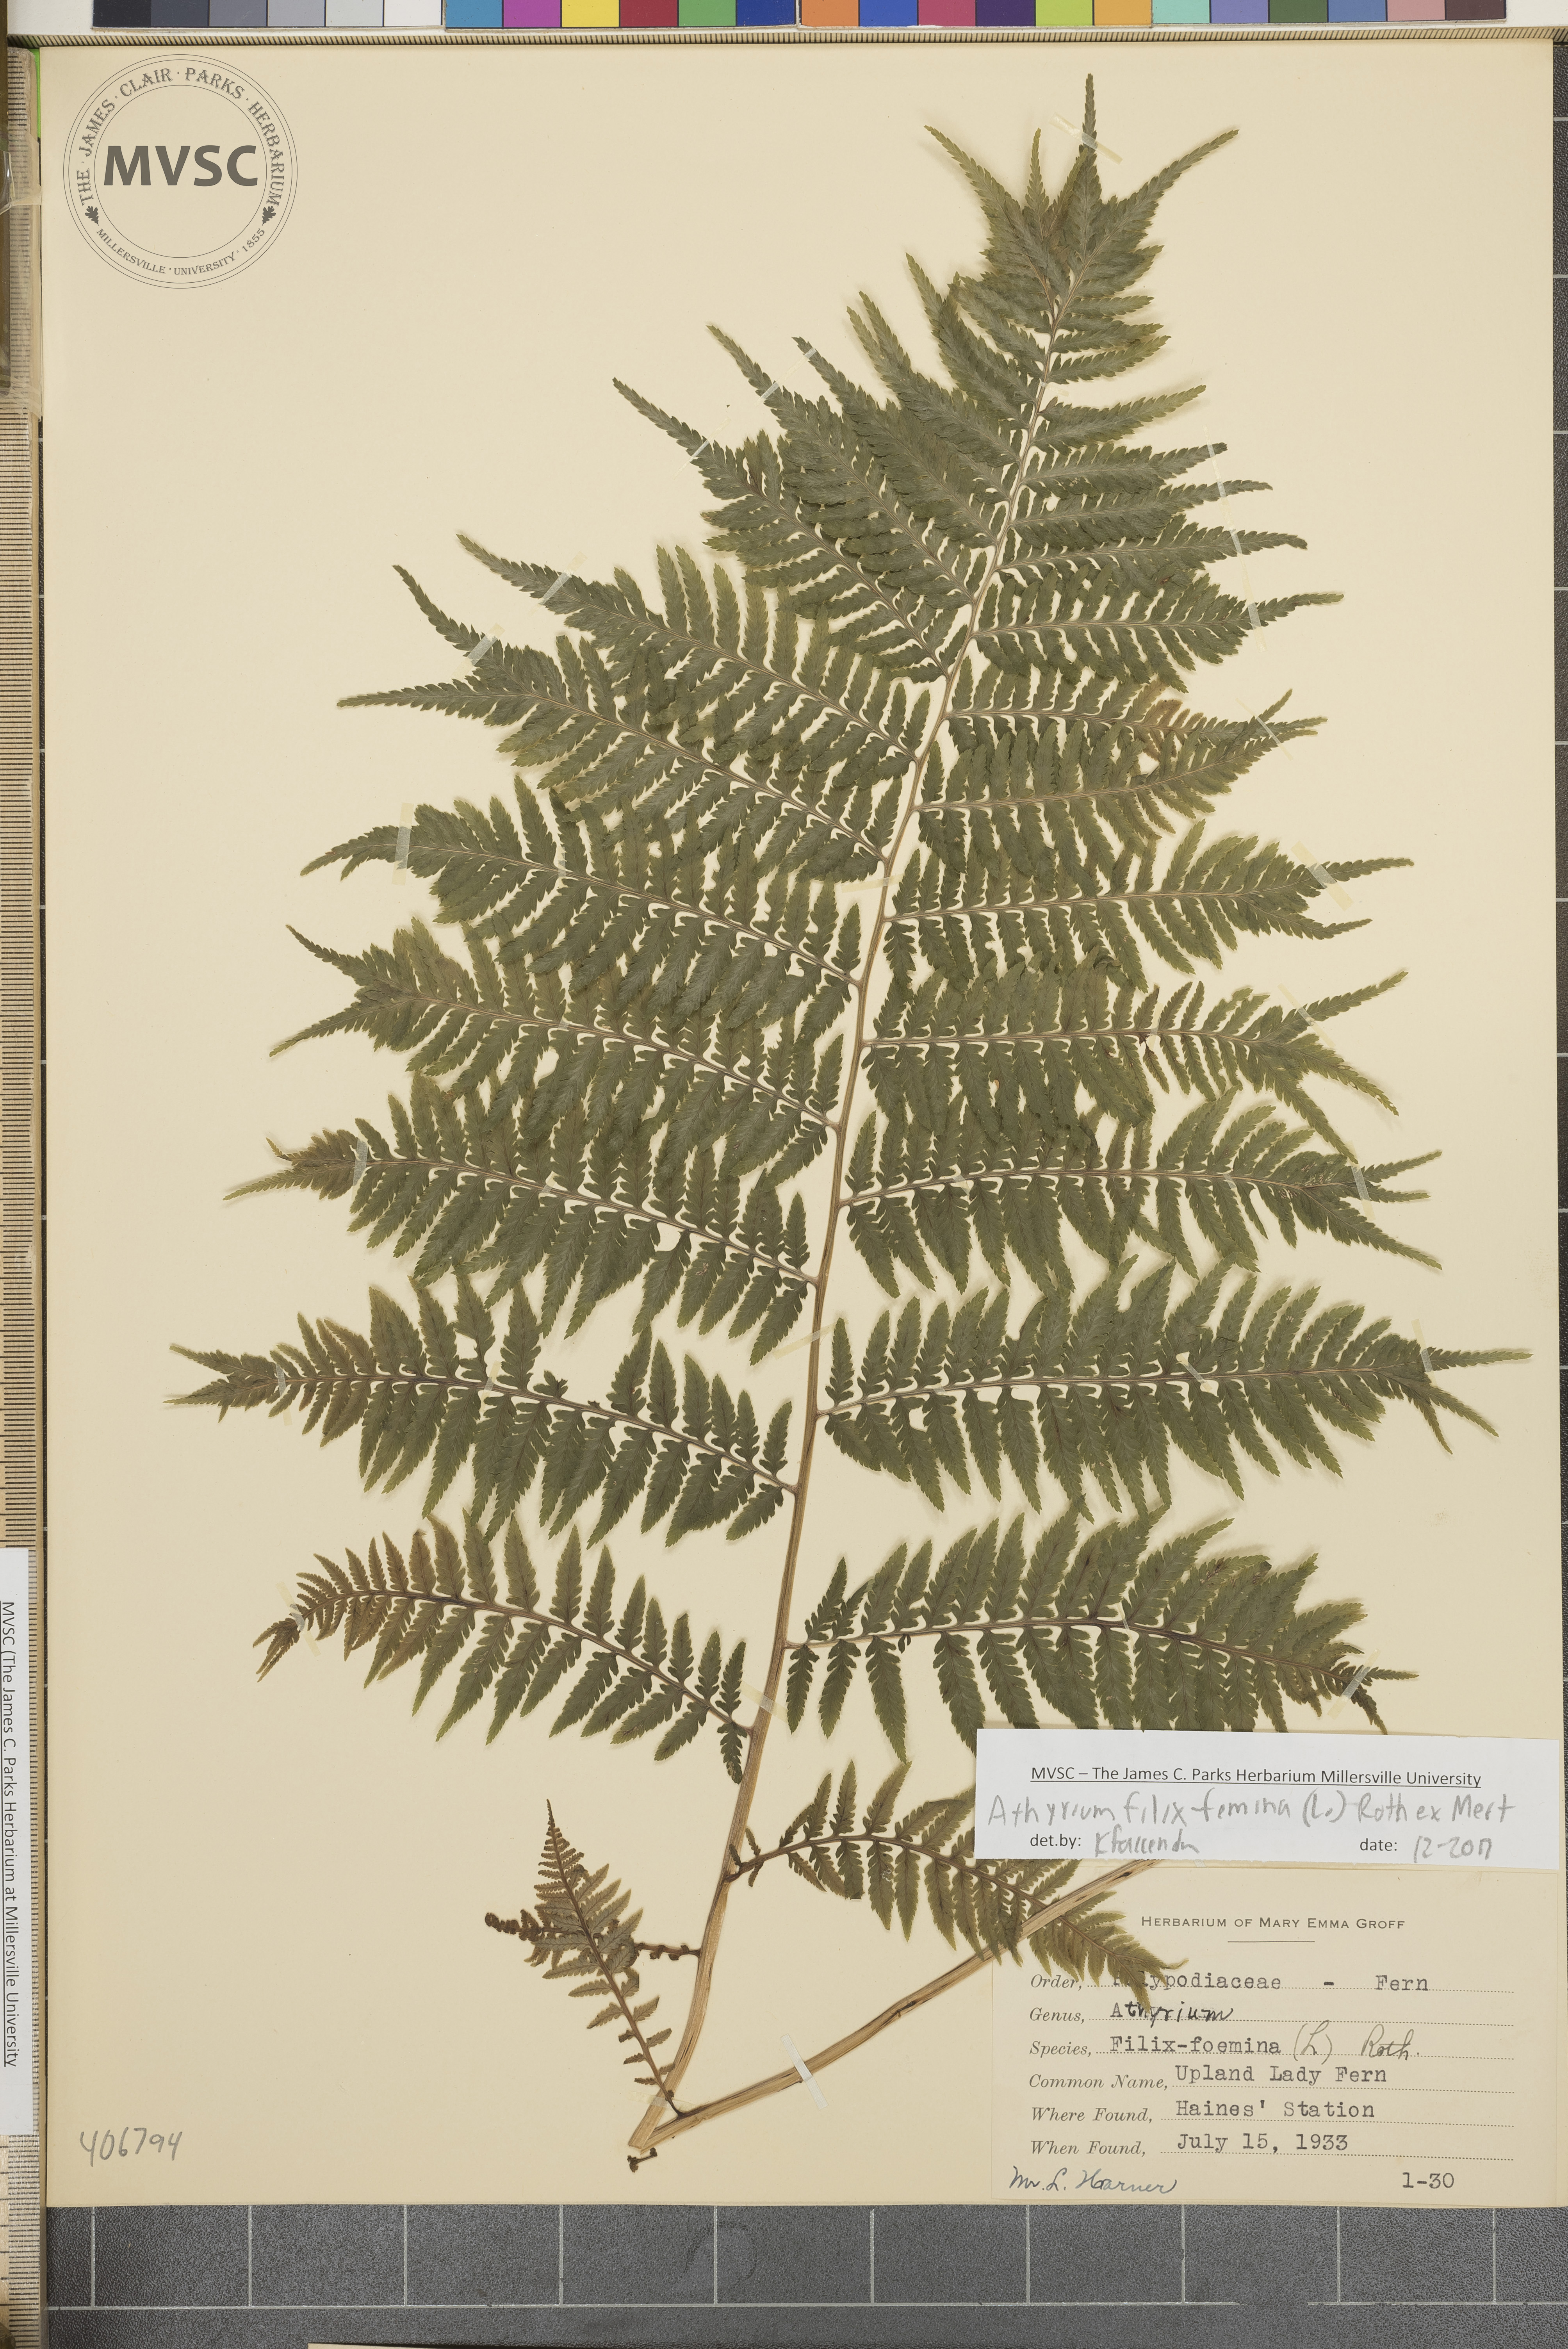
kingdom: Plantae
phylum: Tracheophyta
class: Polypodiopsida
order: Polypodiales
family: Athyriaceae
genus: Athyrium
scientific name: Athyrium filix-femina
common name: Lady fern
